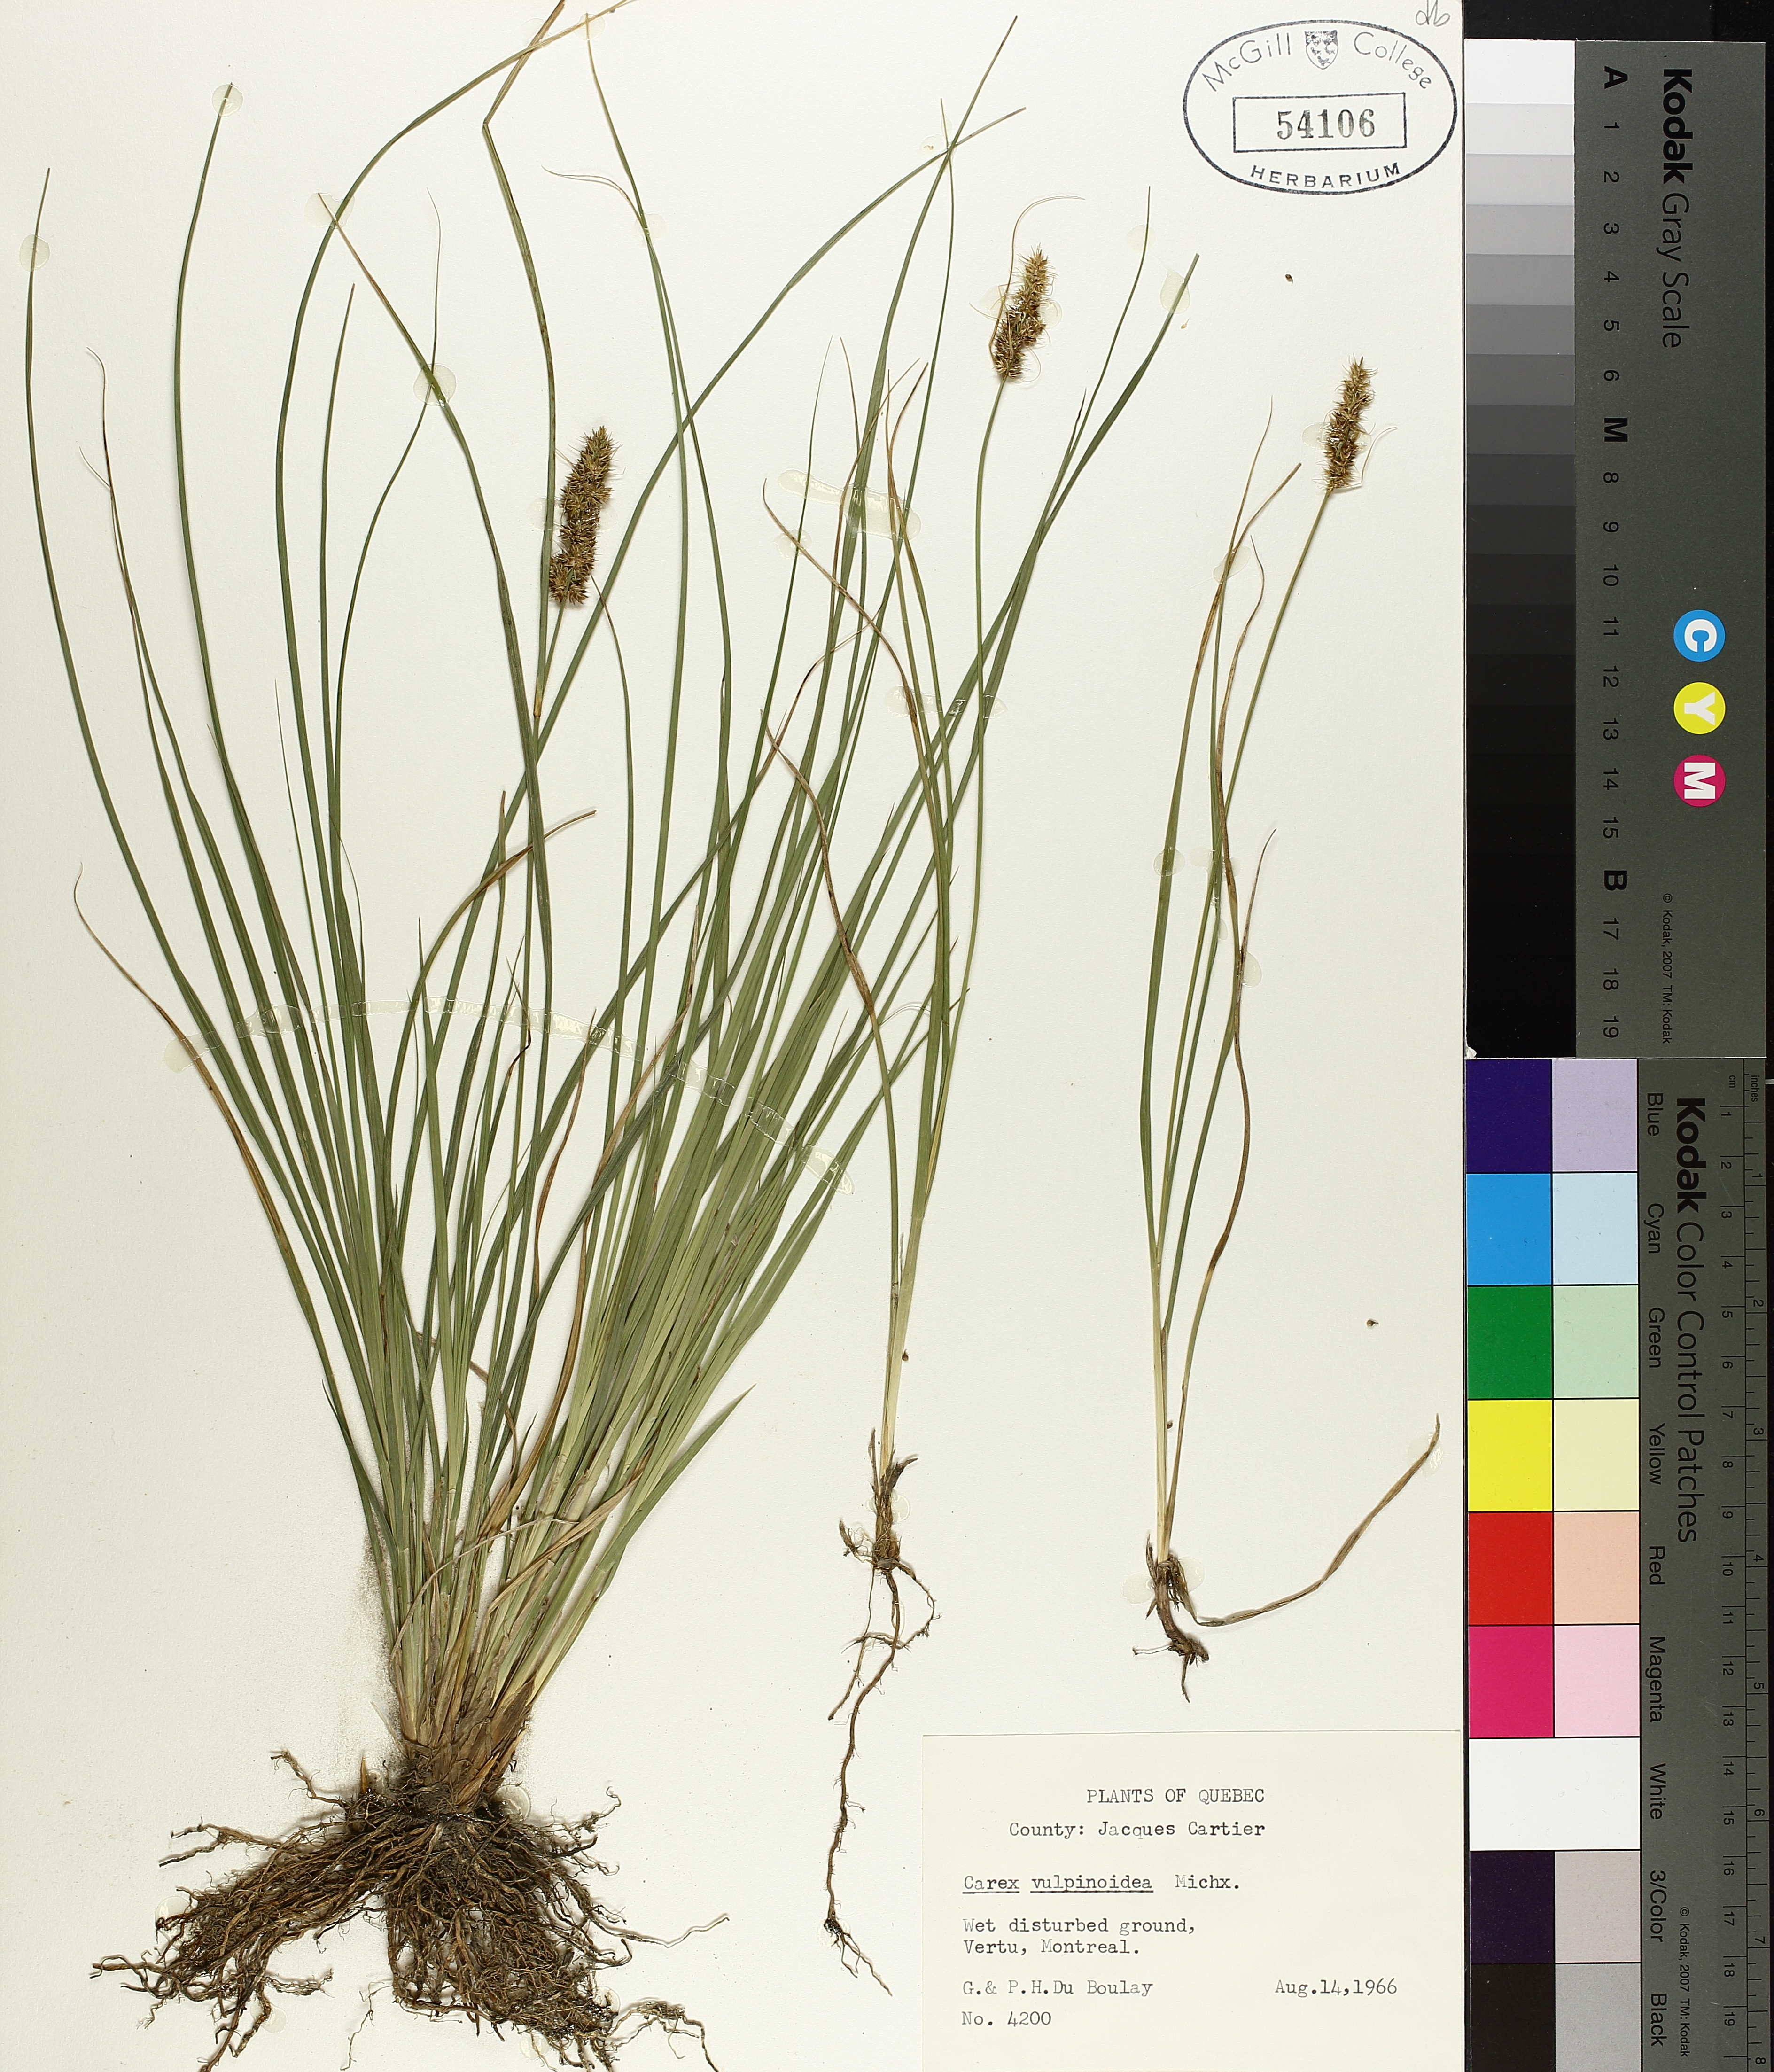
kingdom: Plantae
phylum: Tracheophyta
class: Liliopsida
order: Poales
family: Cyperaceae
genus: Carex
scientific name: Carex vulpinoidea
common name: American fox-sedge
